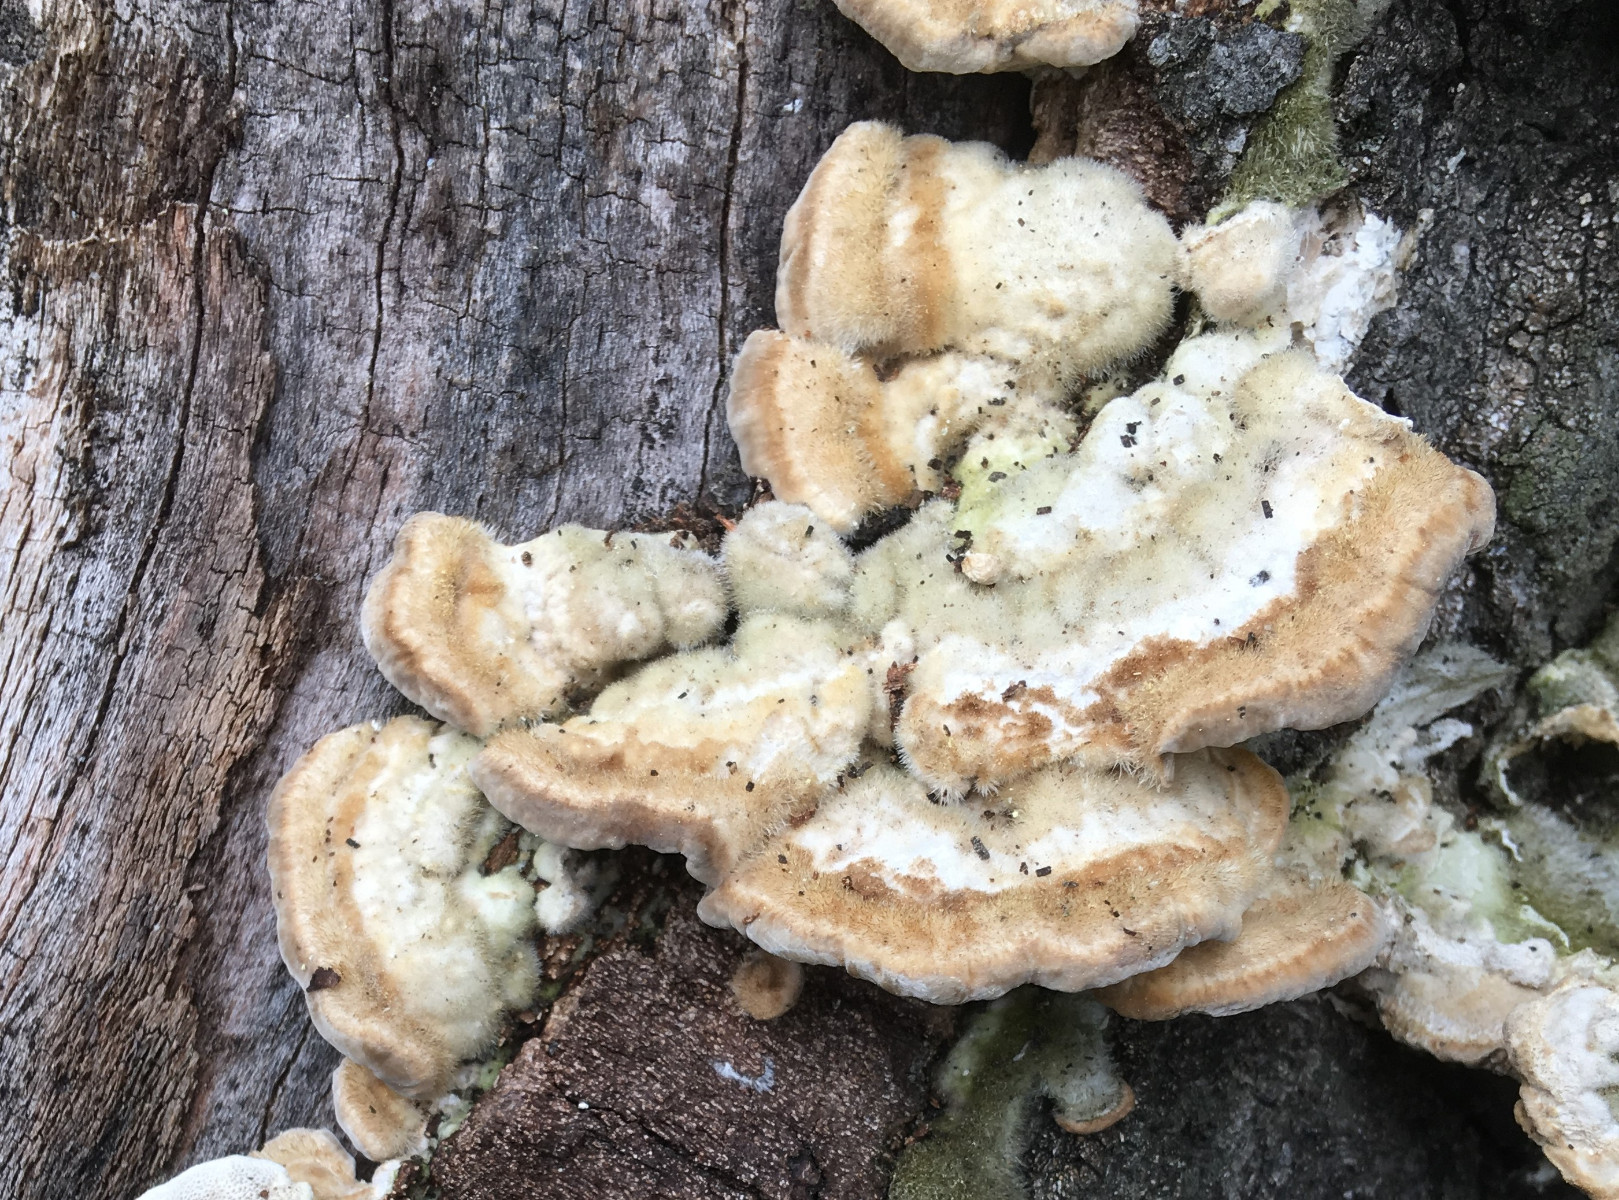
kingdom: Fungi
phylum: Basidiomycota
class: Agaricomycetes
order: Polyporales
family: Polyporaceae
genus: Trametes
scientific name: Trametes hirsuta
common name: håret læderporesvamp
